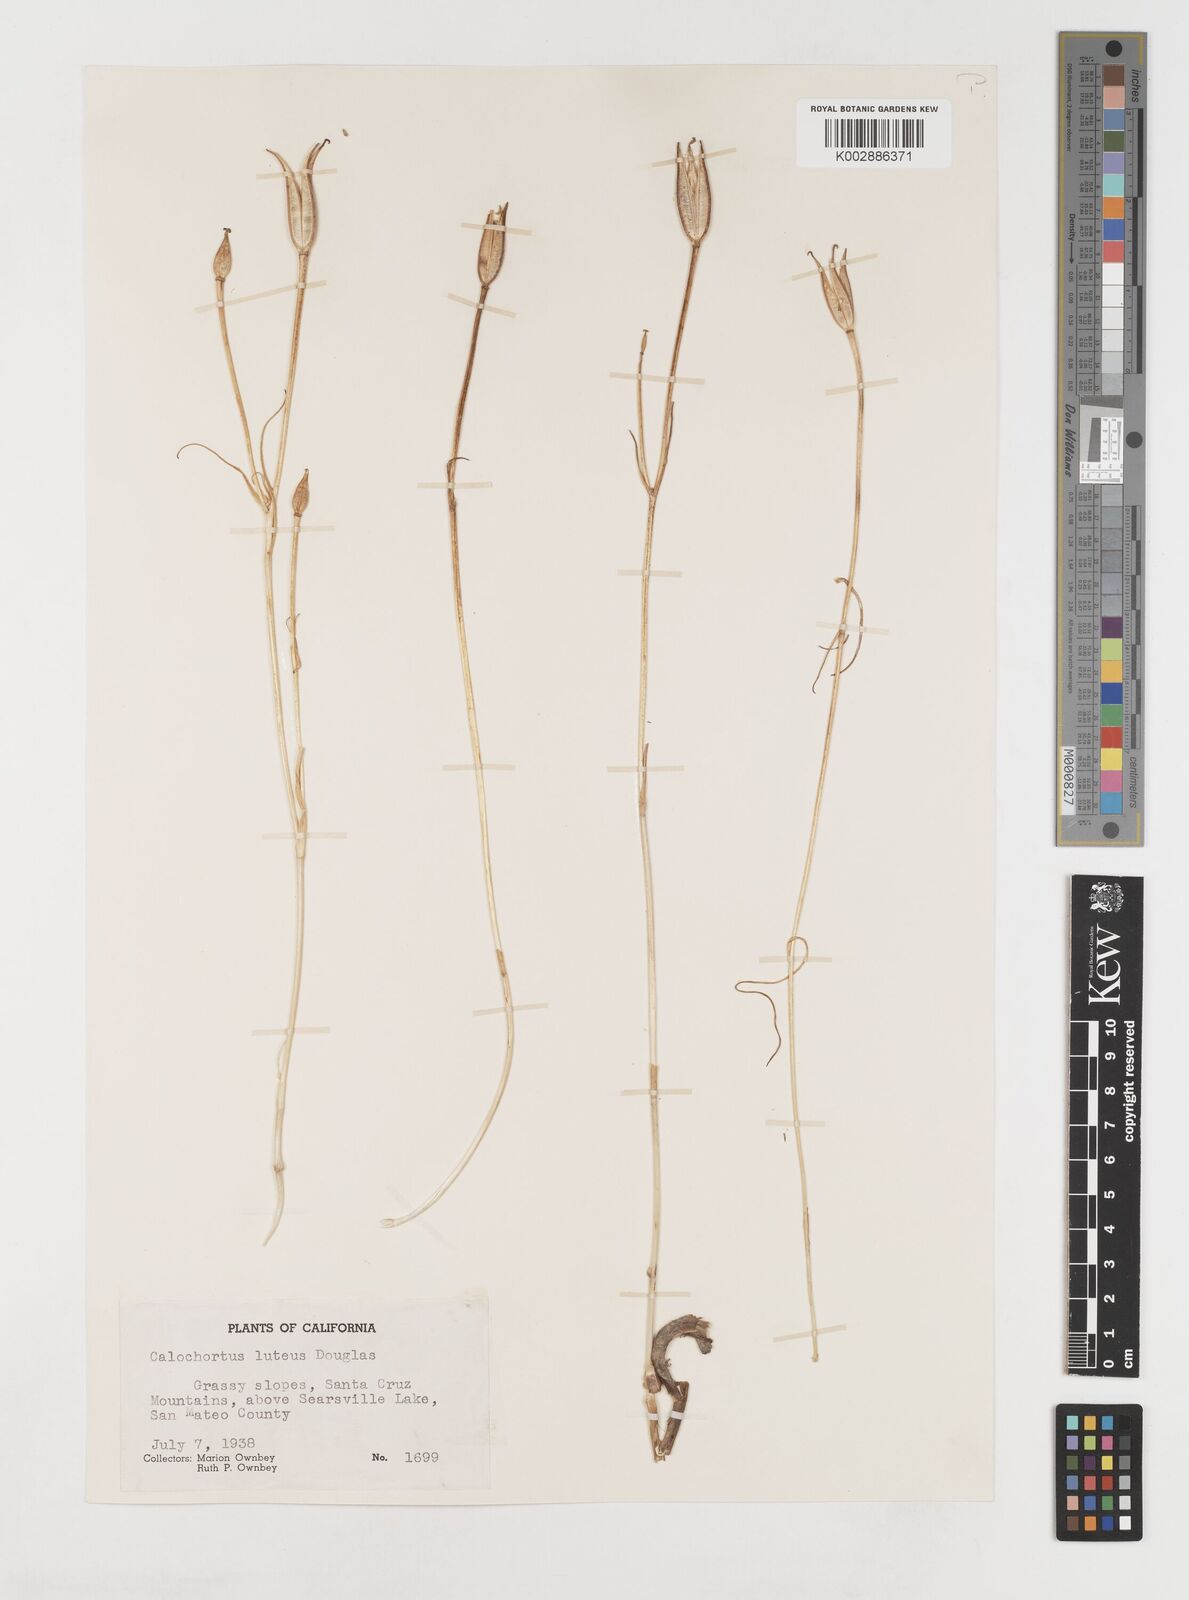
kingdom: Plantae
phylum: Tracheophyta
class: Liliopsida
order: Liliales
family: Liliaceae
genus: Calochortus
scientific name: Calochortus nuttallii
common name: Sego-lily
